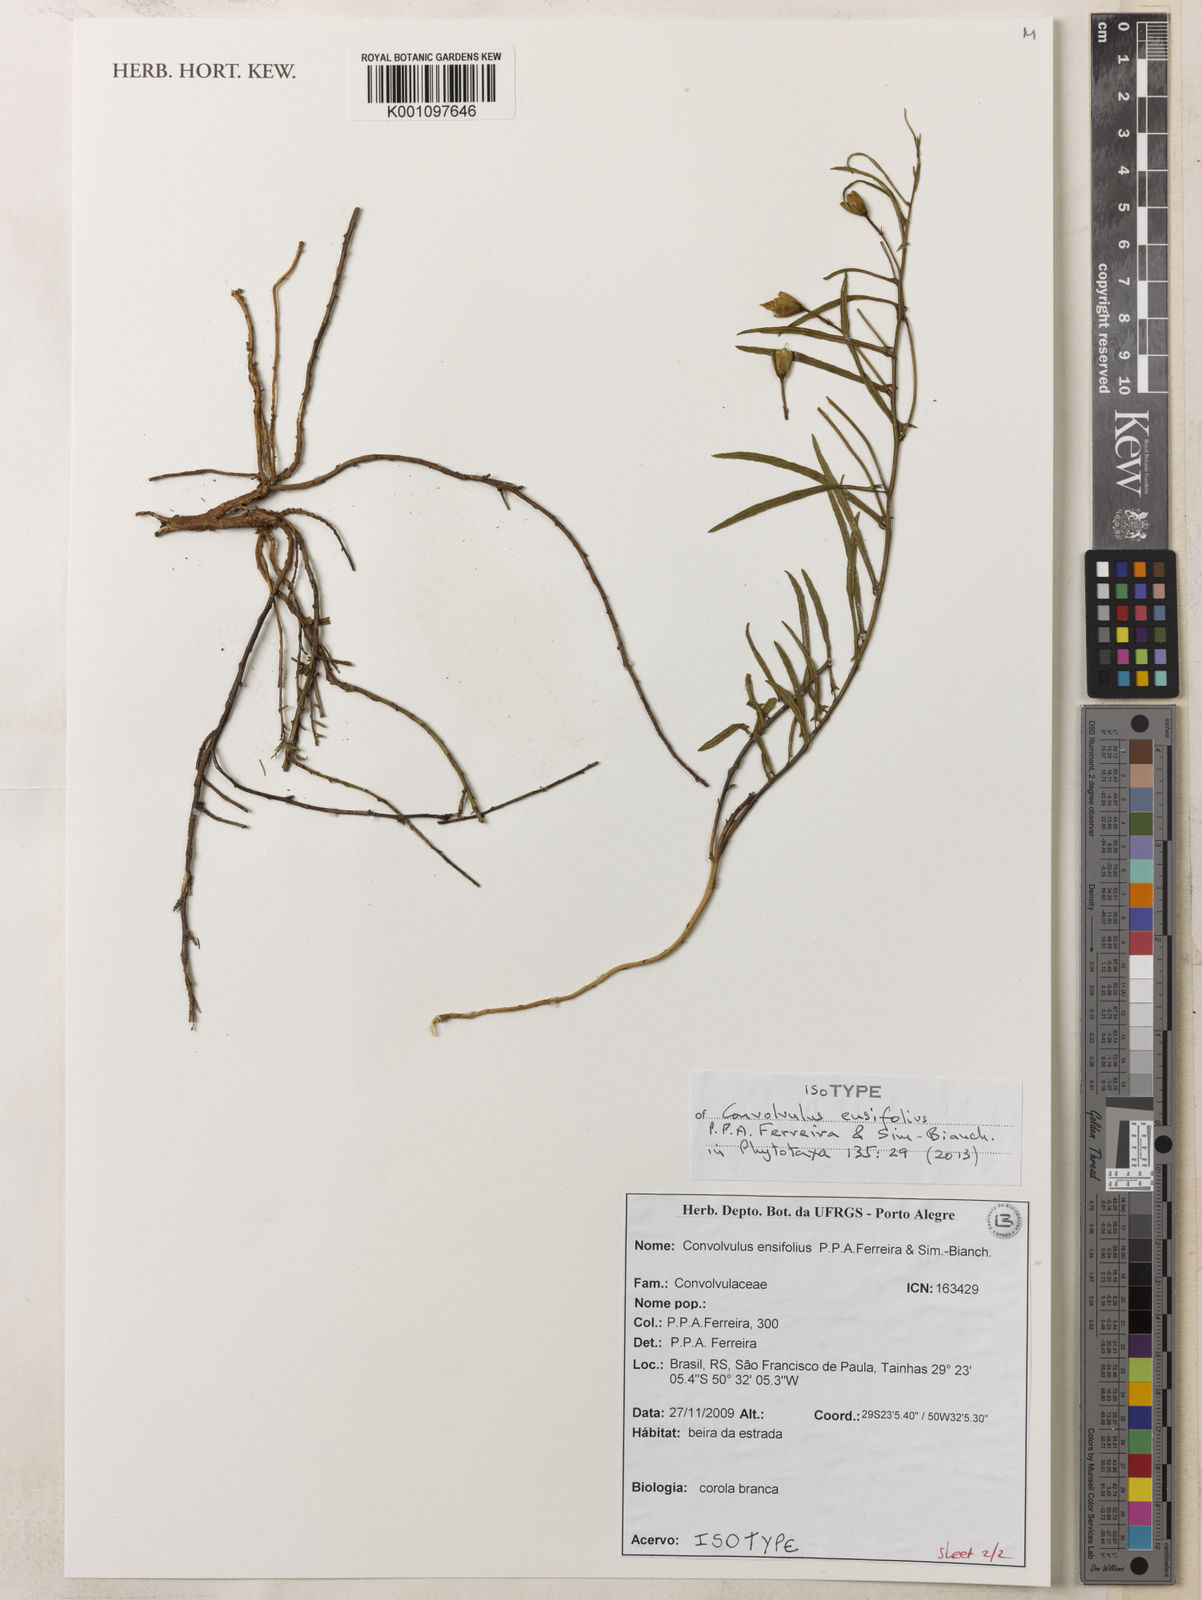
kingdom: Plantae
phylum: Tracheophyta
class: Magnoliopsida
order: Solanales
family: Convolvulaceae
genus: Convolvulus
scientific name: Convolvulus ensifolius
